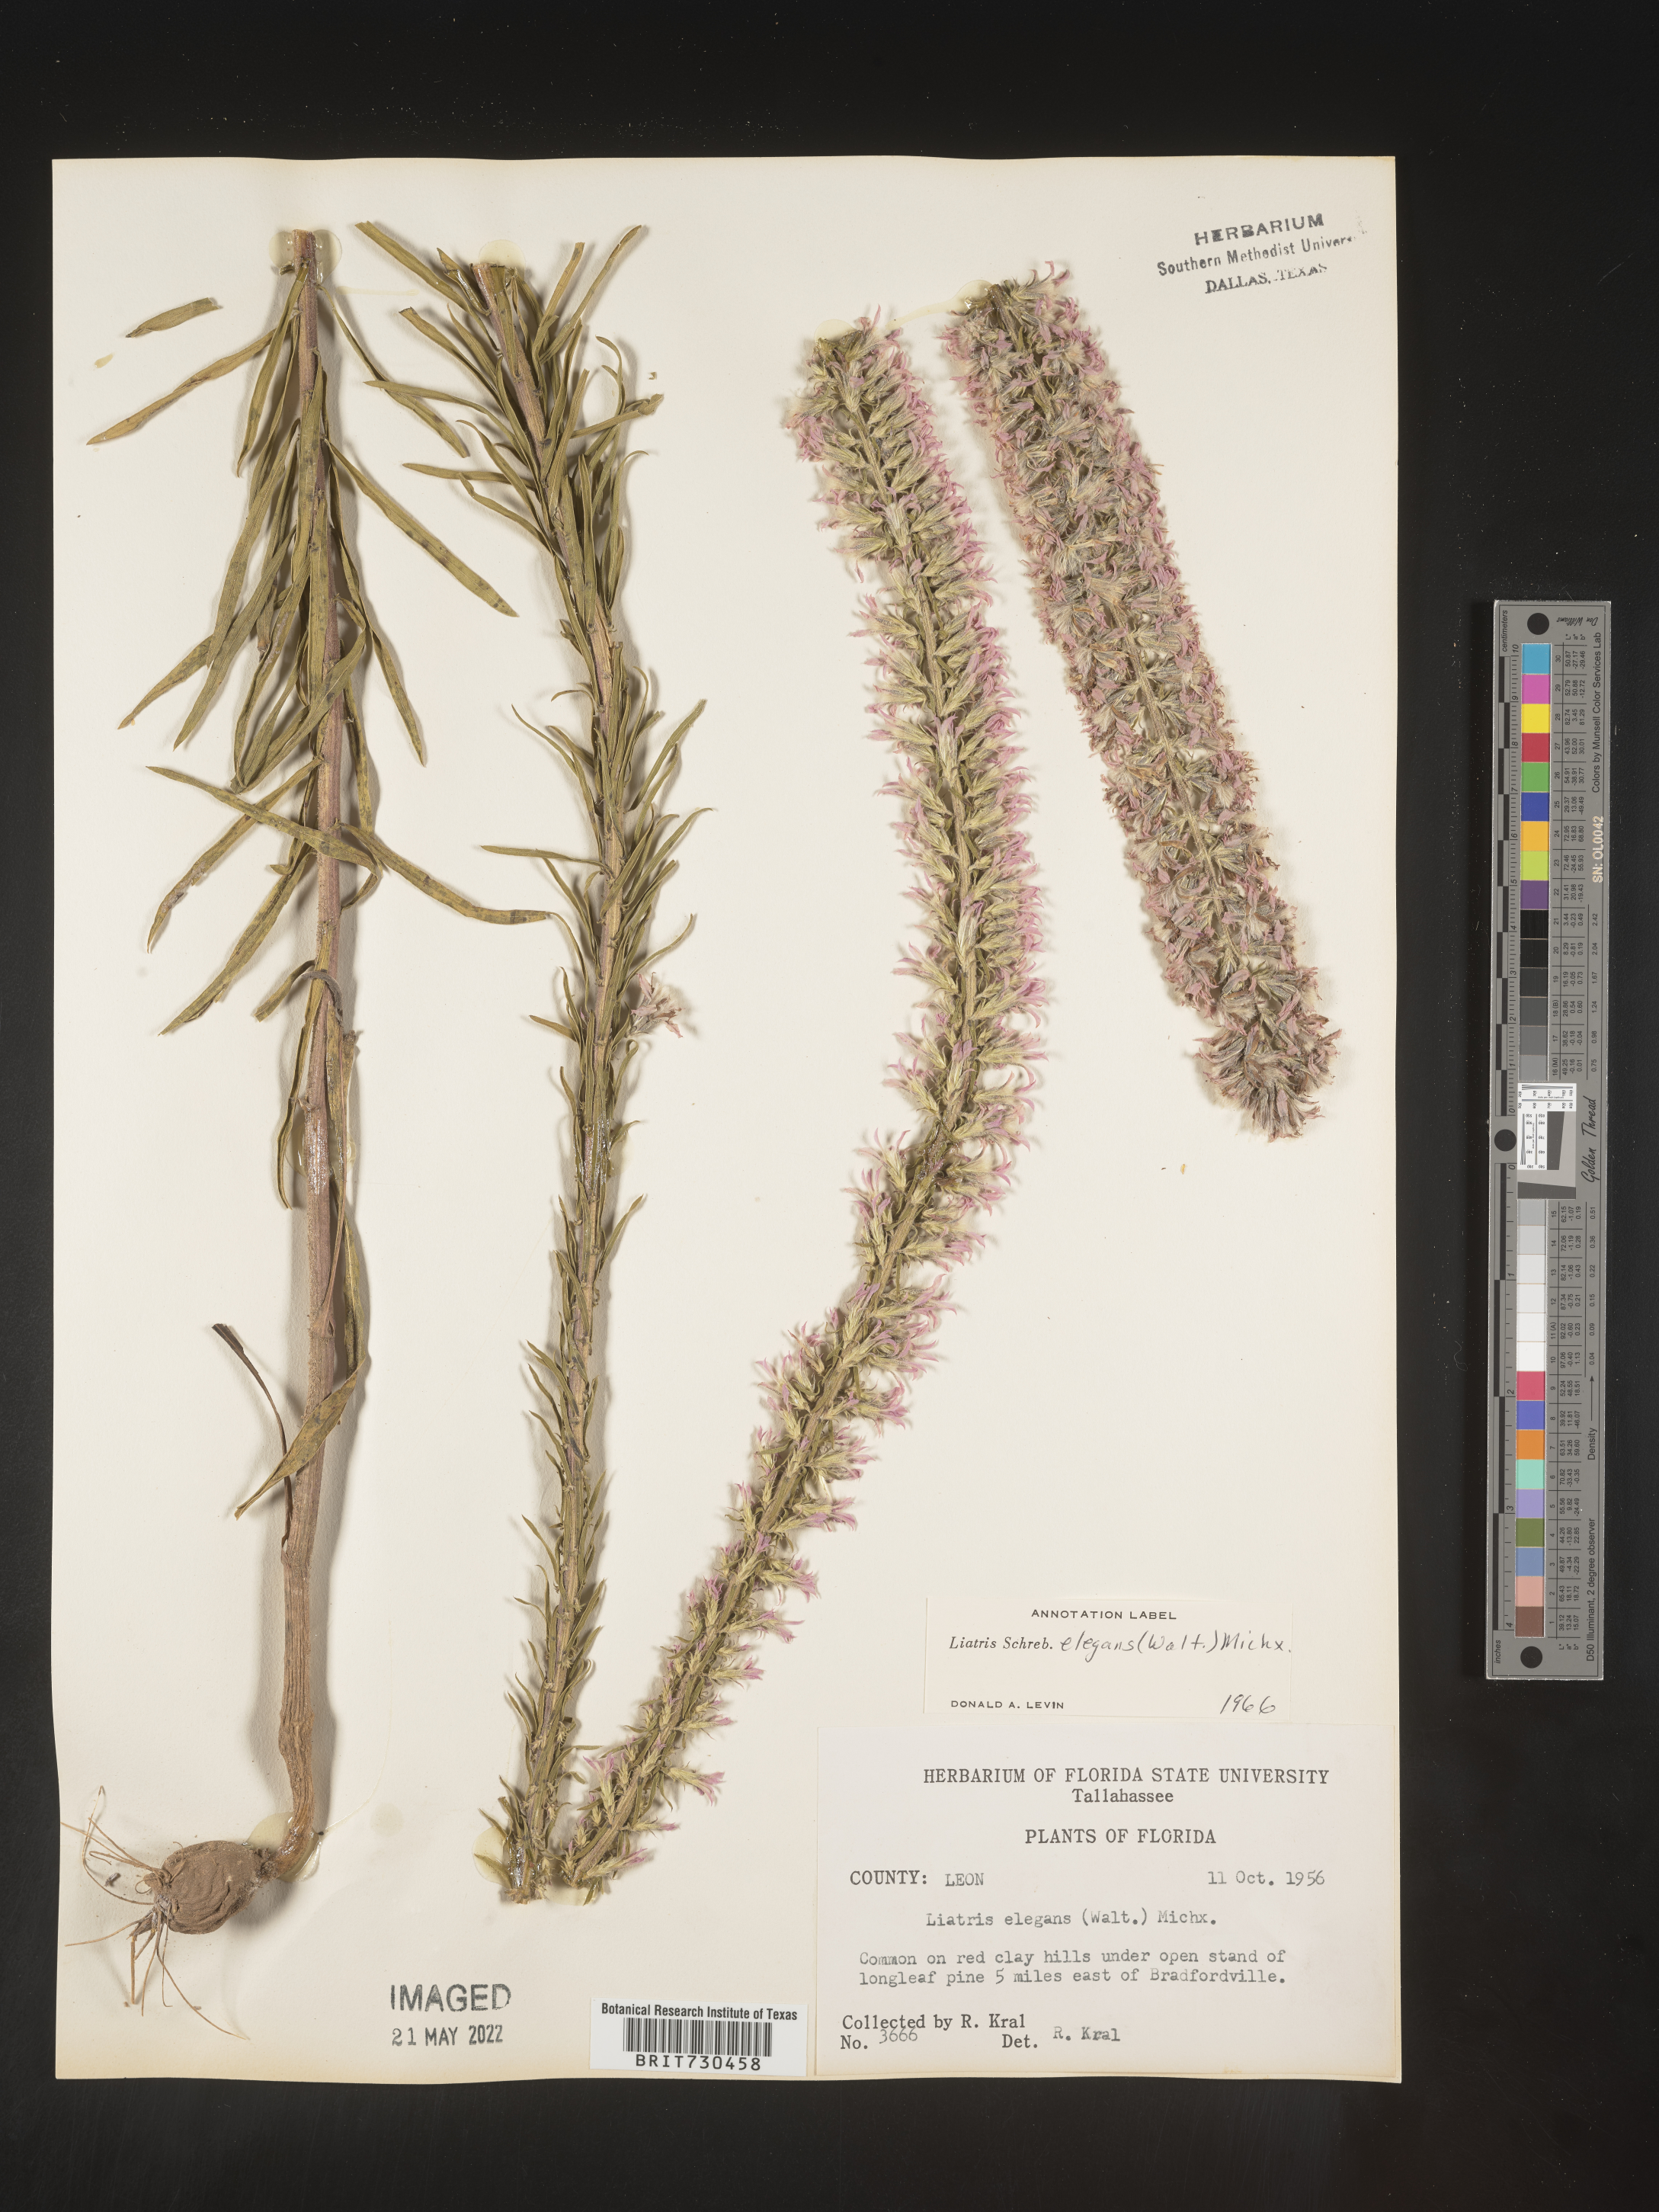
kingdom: Plantae
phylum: Tracheophyta
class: Magnoliopsida
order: Asterales
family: Asteraceae
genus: Liatris
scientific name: Liatris elegans
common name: Pinkscale gayfeather
